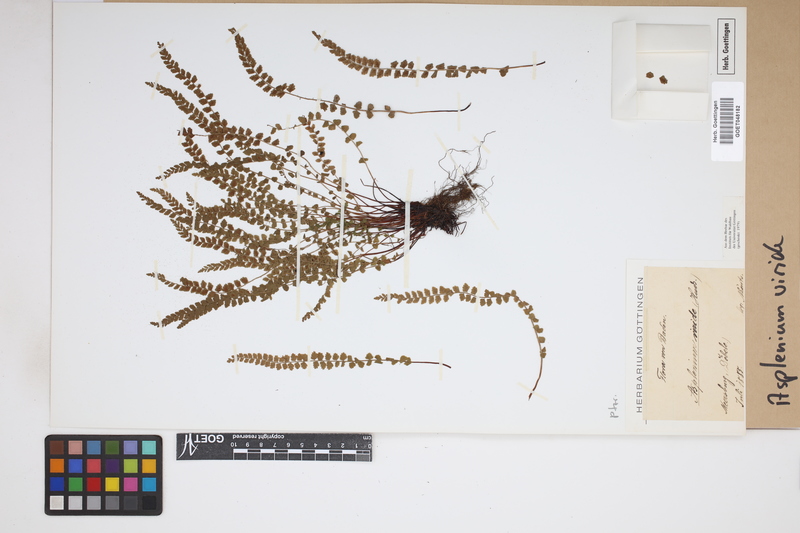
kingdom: Plantae
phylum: Tracheophyta
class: Polypodiopsida
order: Polypodiales
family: Aspleniaceae
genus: Asplenium
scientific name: Asplenium viride
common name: Green spleenwort
